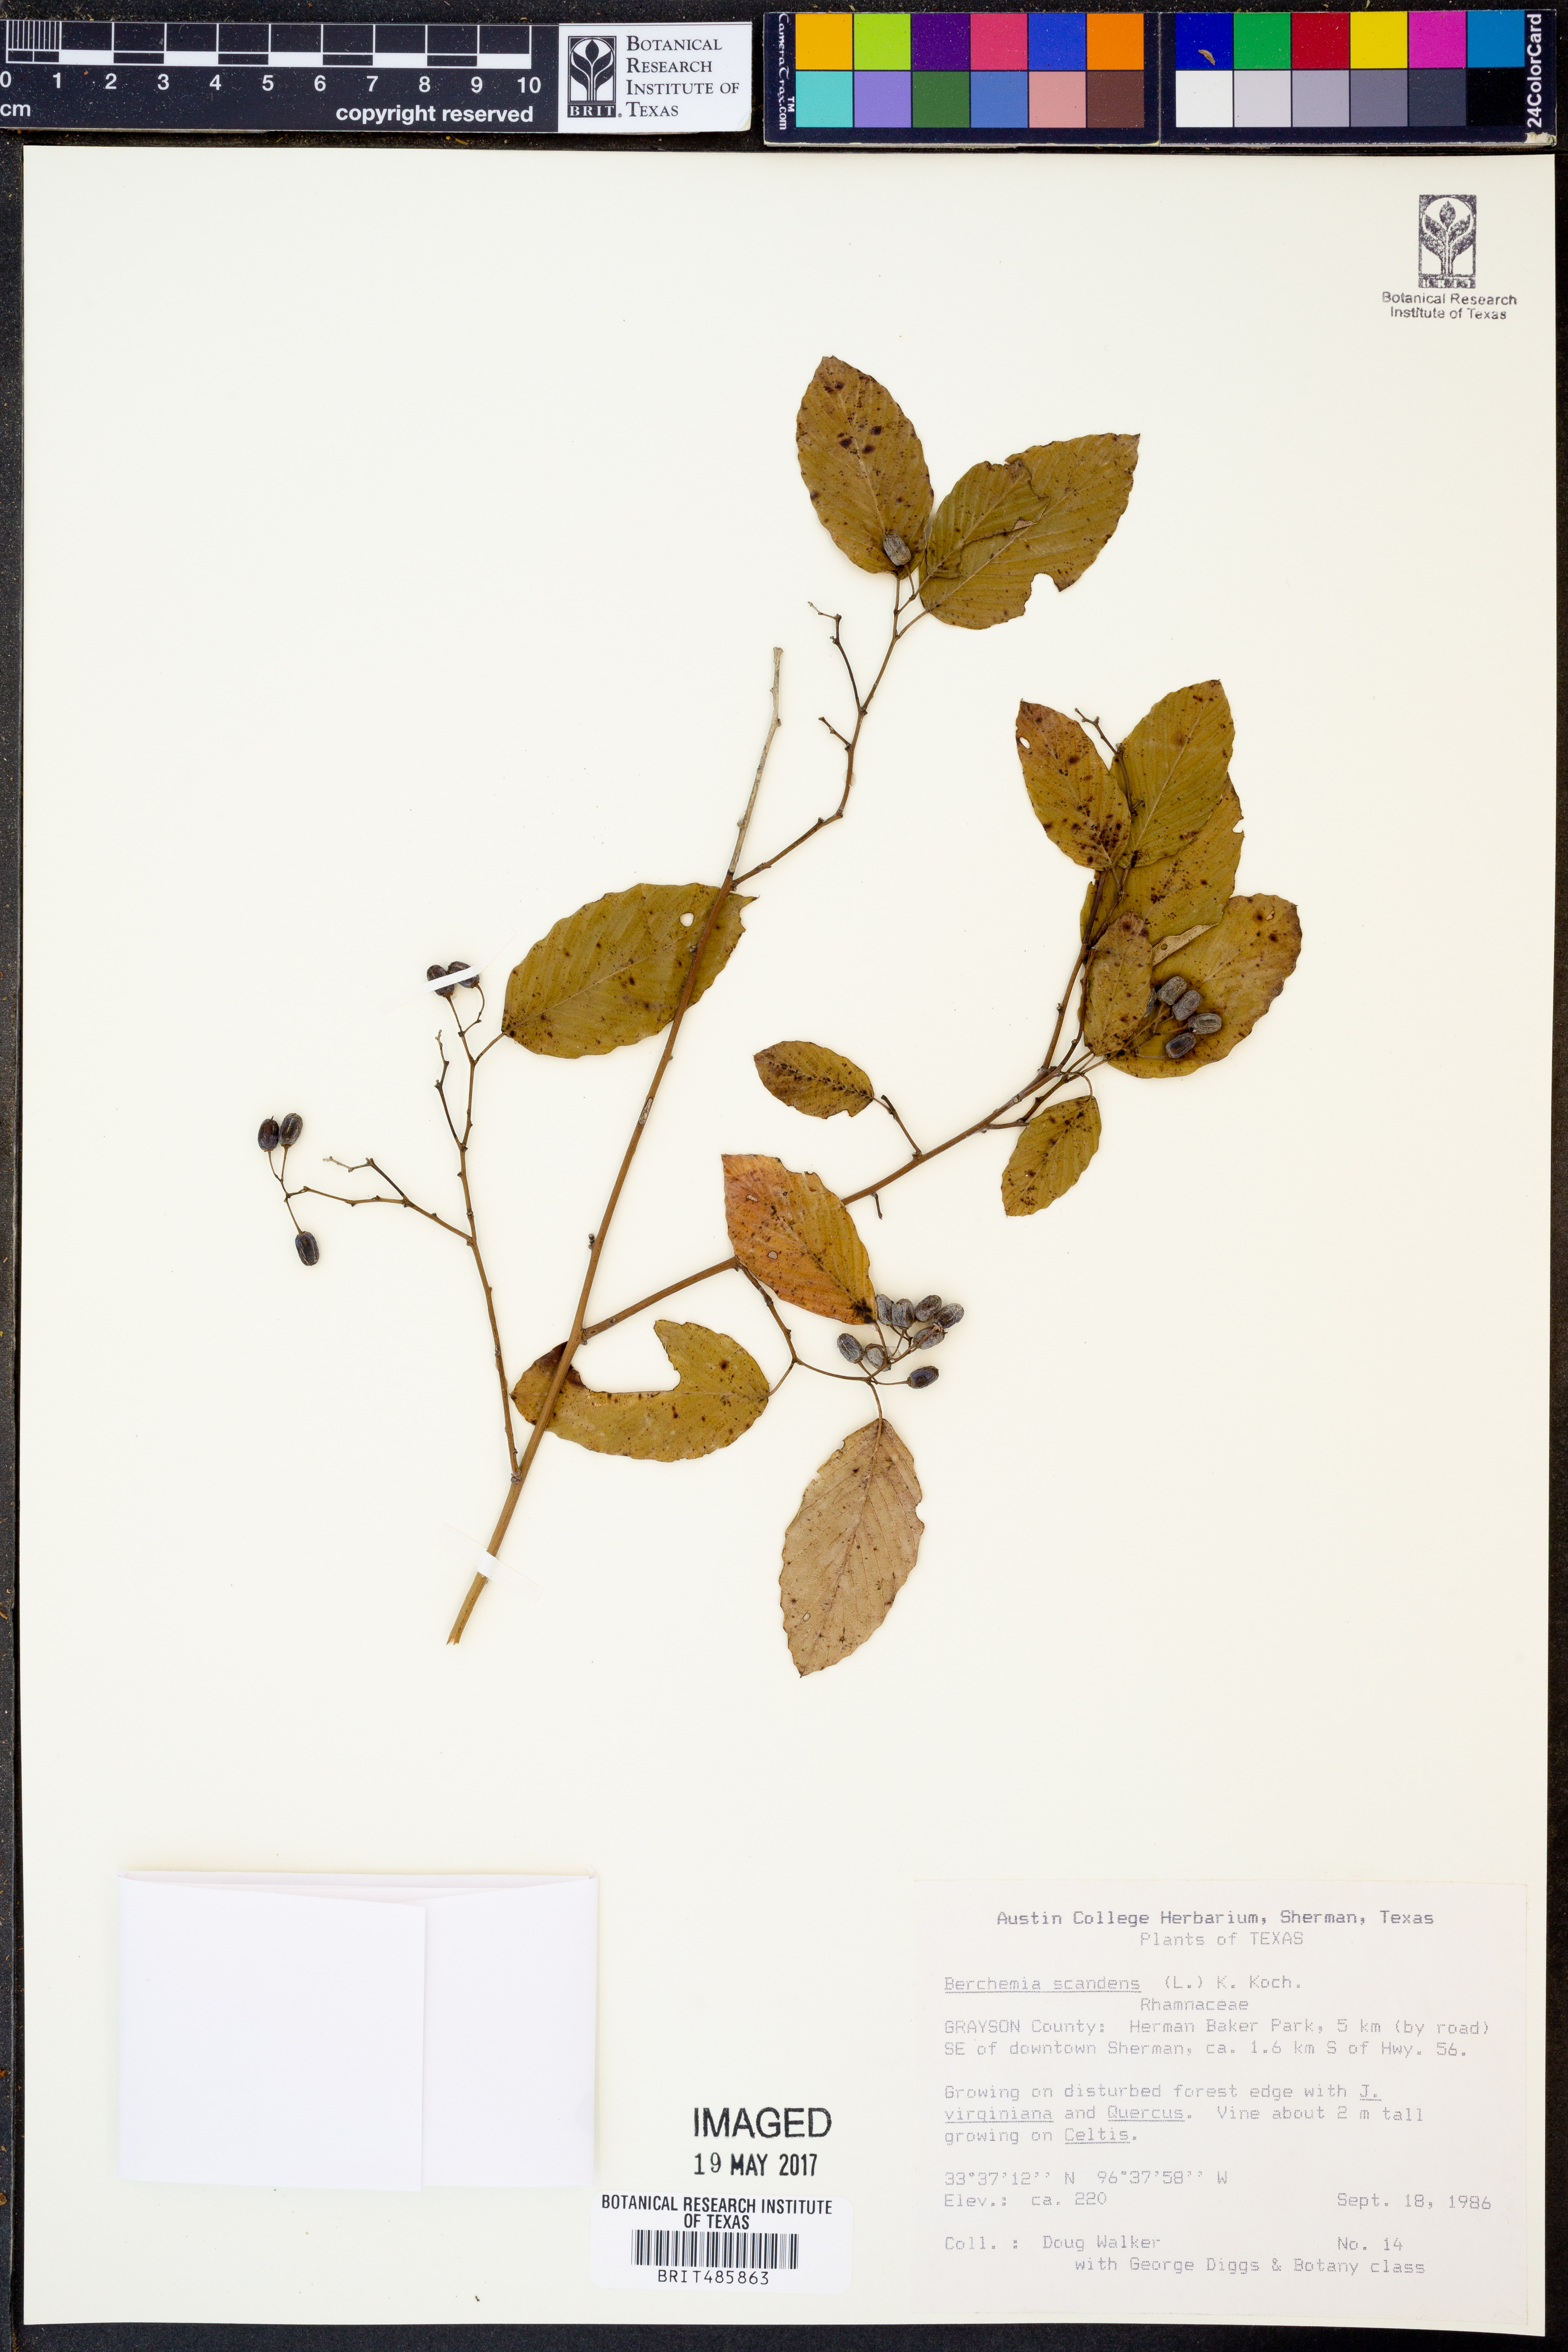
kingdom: Plantae
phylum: Tracheophyta
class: Magnoliopsida
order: Rosales
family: Rhamnaceae
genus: Berchemia
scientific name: Berchemia scandens
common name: Supplejack
